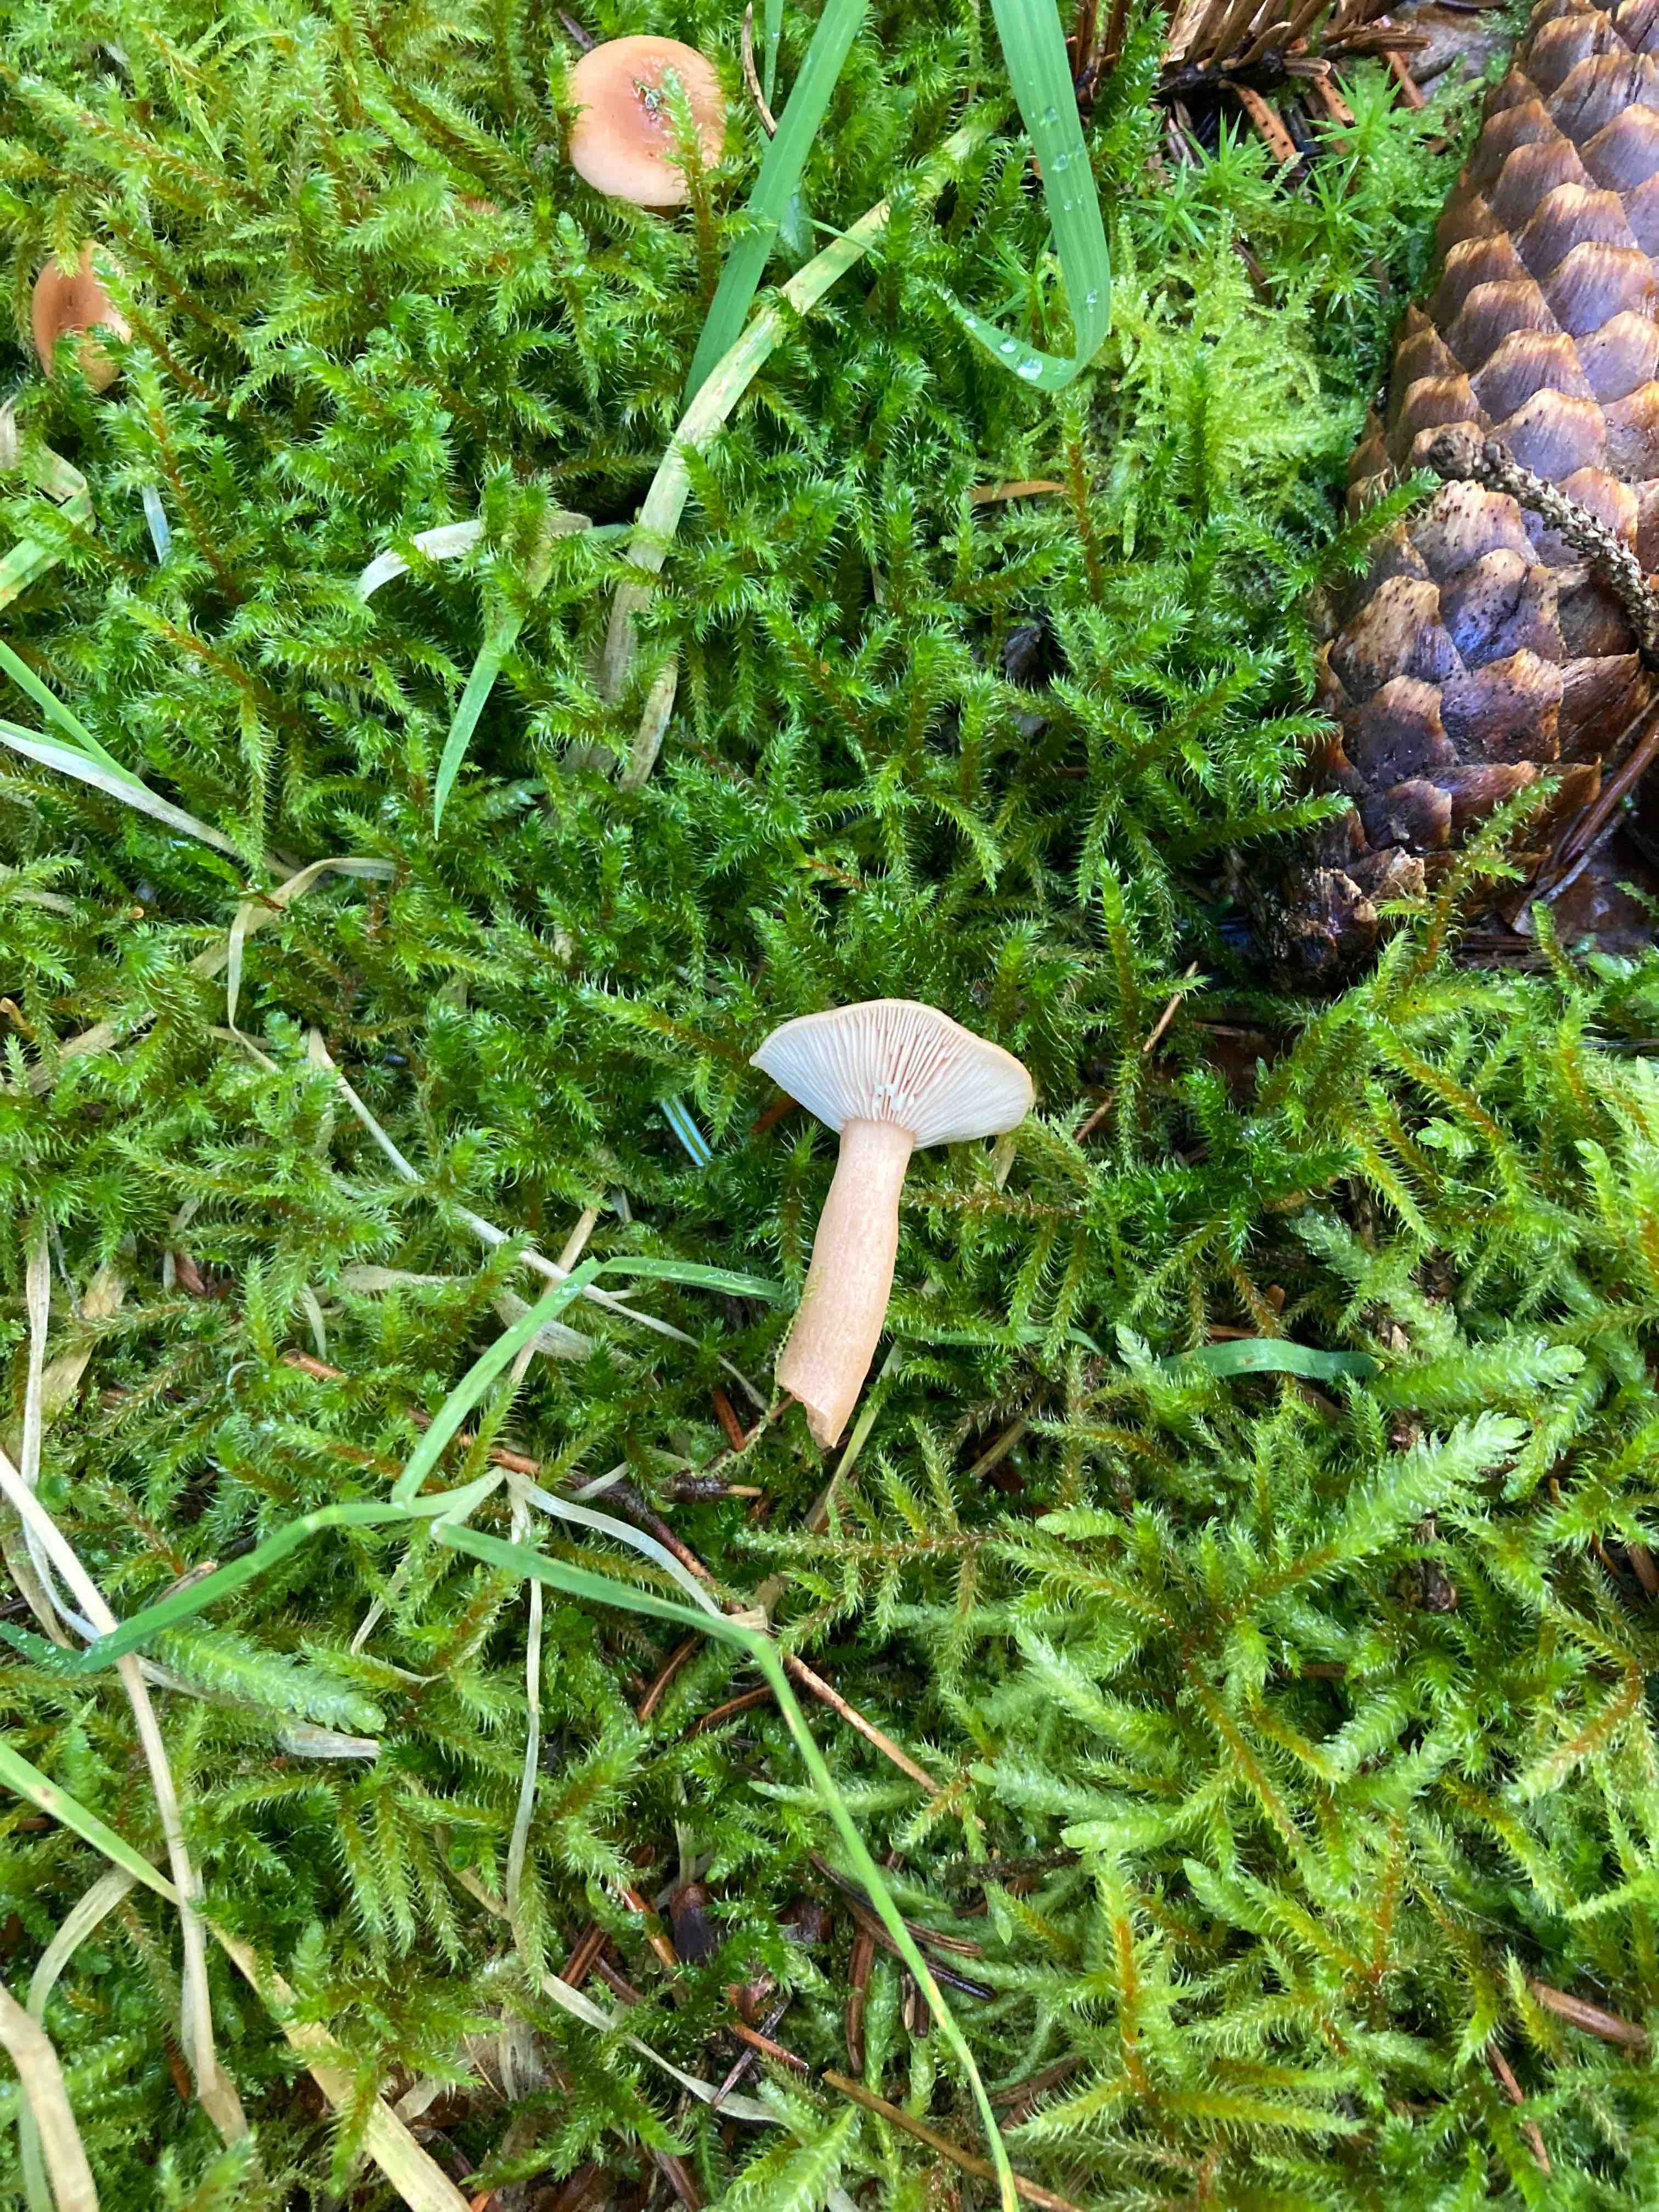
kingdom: Fungi
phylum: Basidiomycota
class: Agaricomycetes
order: Russulales
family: Russulaceae
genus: Lactarius
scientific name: Lactarius tabidus
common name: rynket mælkehat
